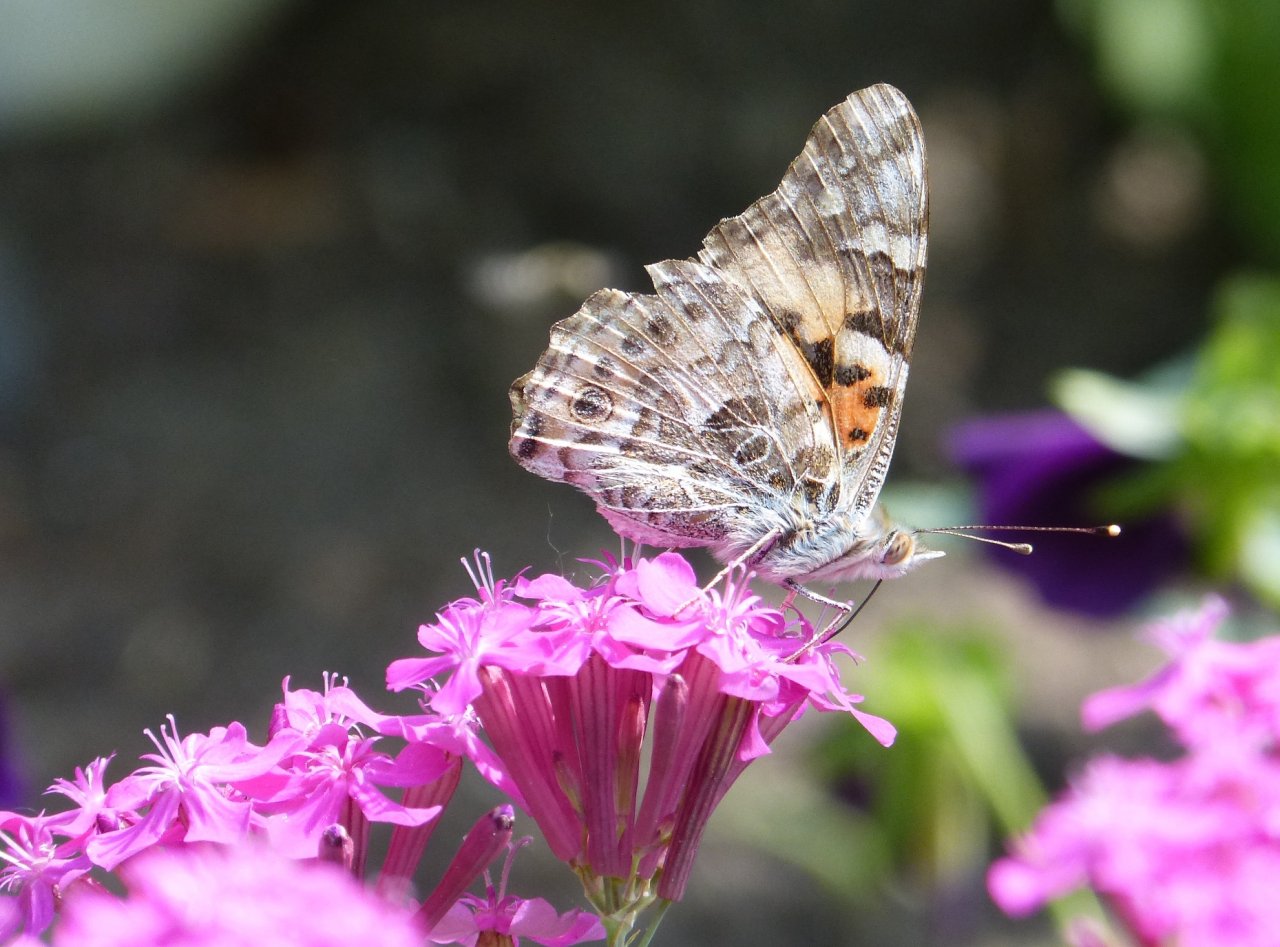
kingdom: Animalia
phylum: Arthropoda
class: Insecta
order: Lepidoptera
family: Nymphalidae
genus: Vanessa
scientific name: Vanessa cardui
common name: Painted Lady
